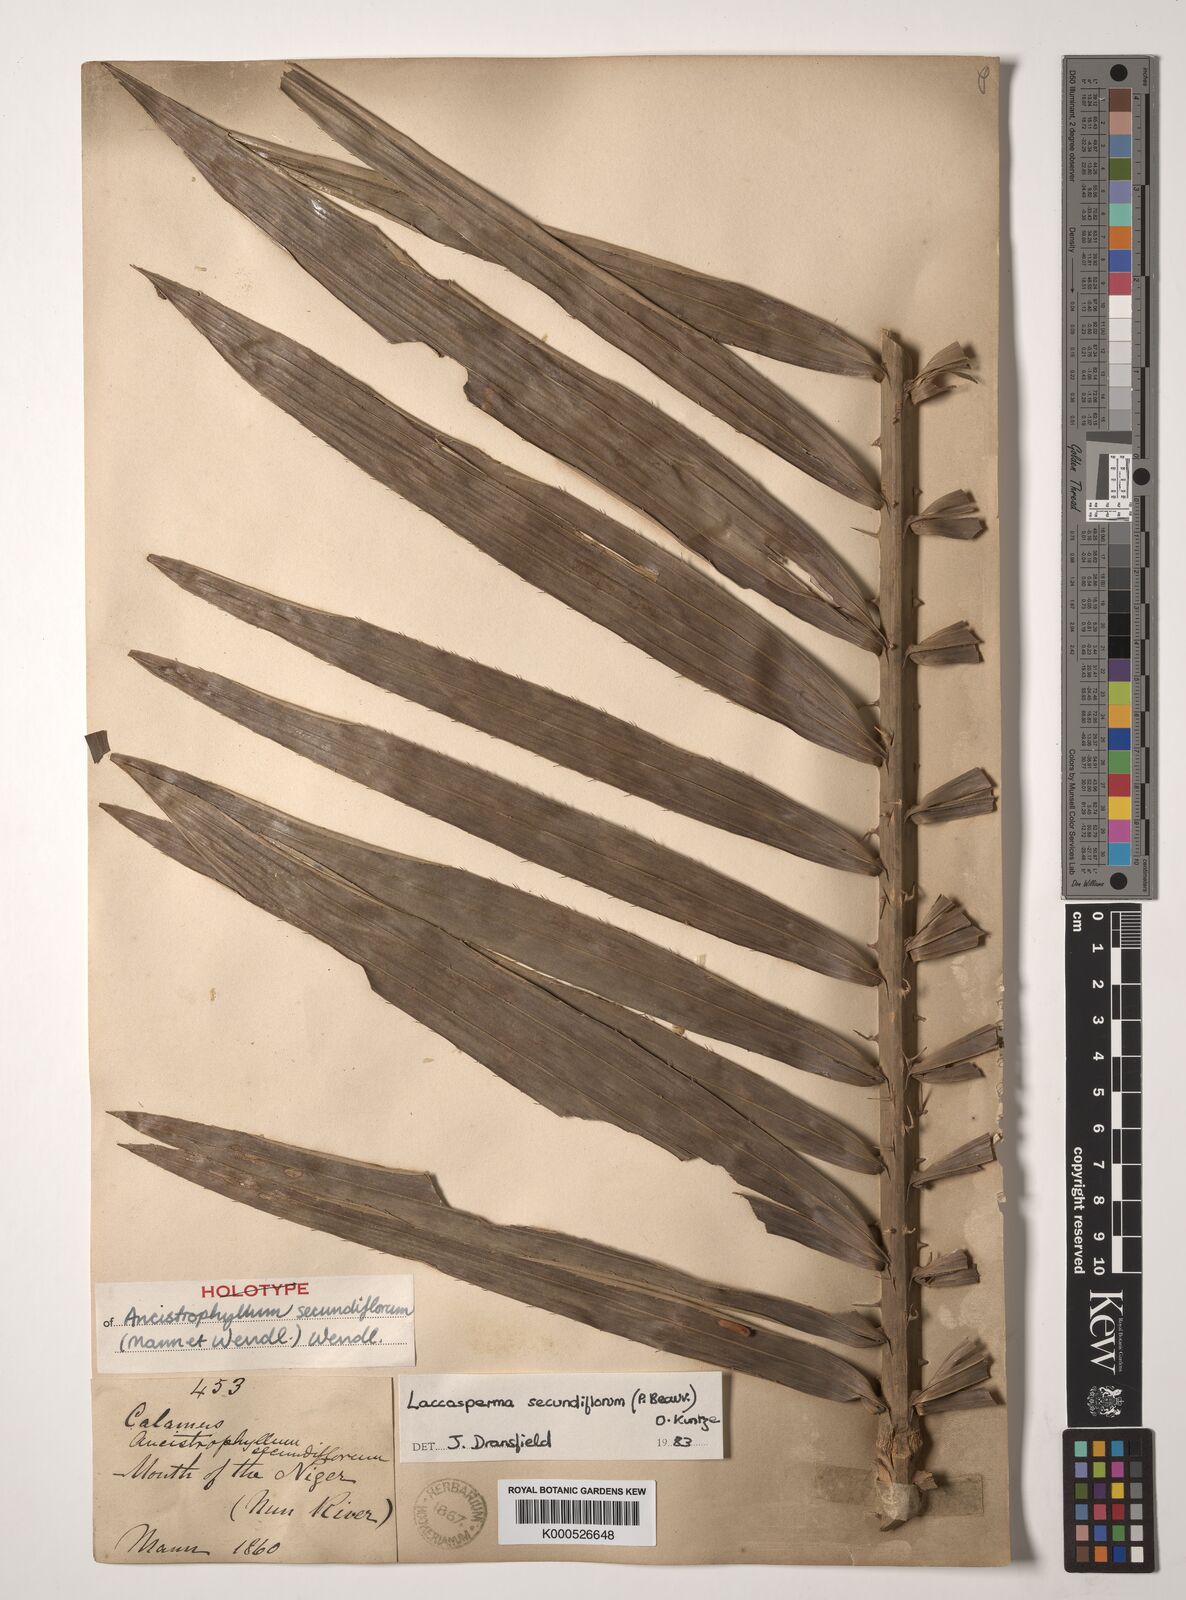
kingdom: Plantae
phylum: Tracheophyta
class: Liliopsida
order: Arecales
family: Arecaceae
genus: Laccosperma
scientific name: Laccosperma secundiflorum
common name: Rattan
